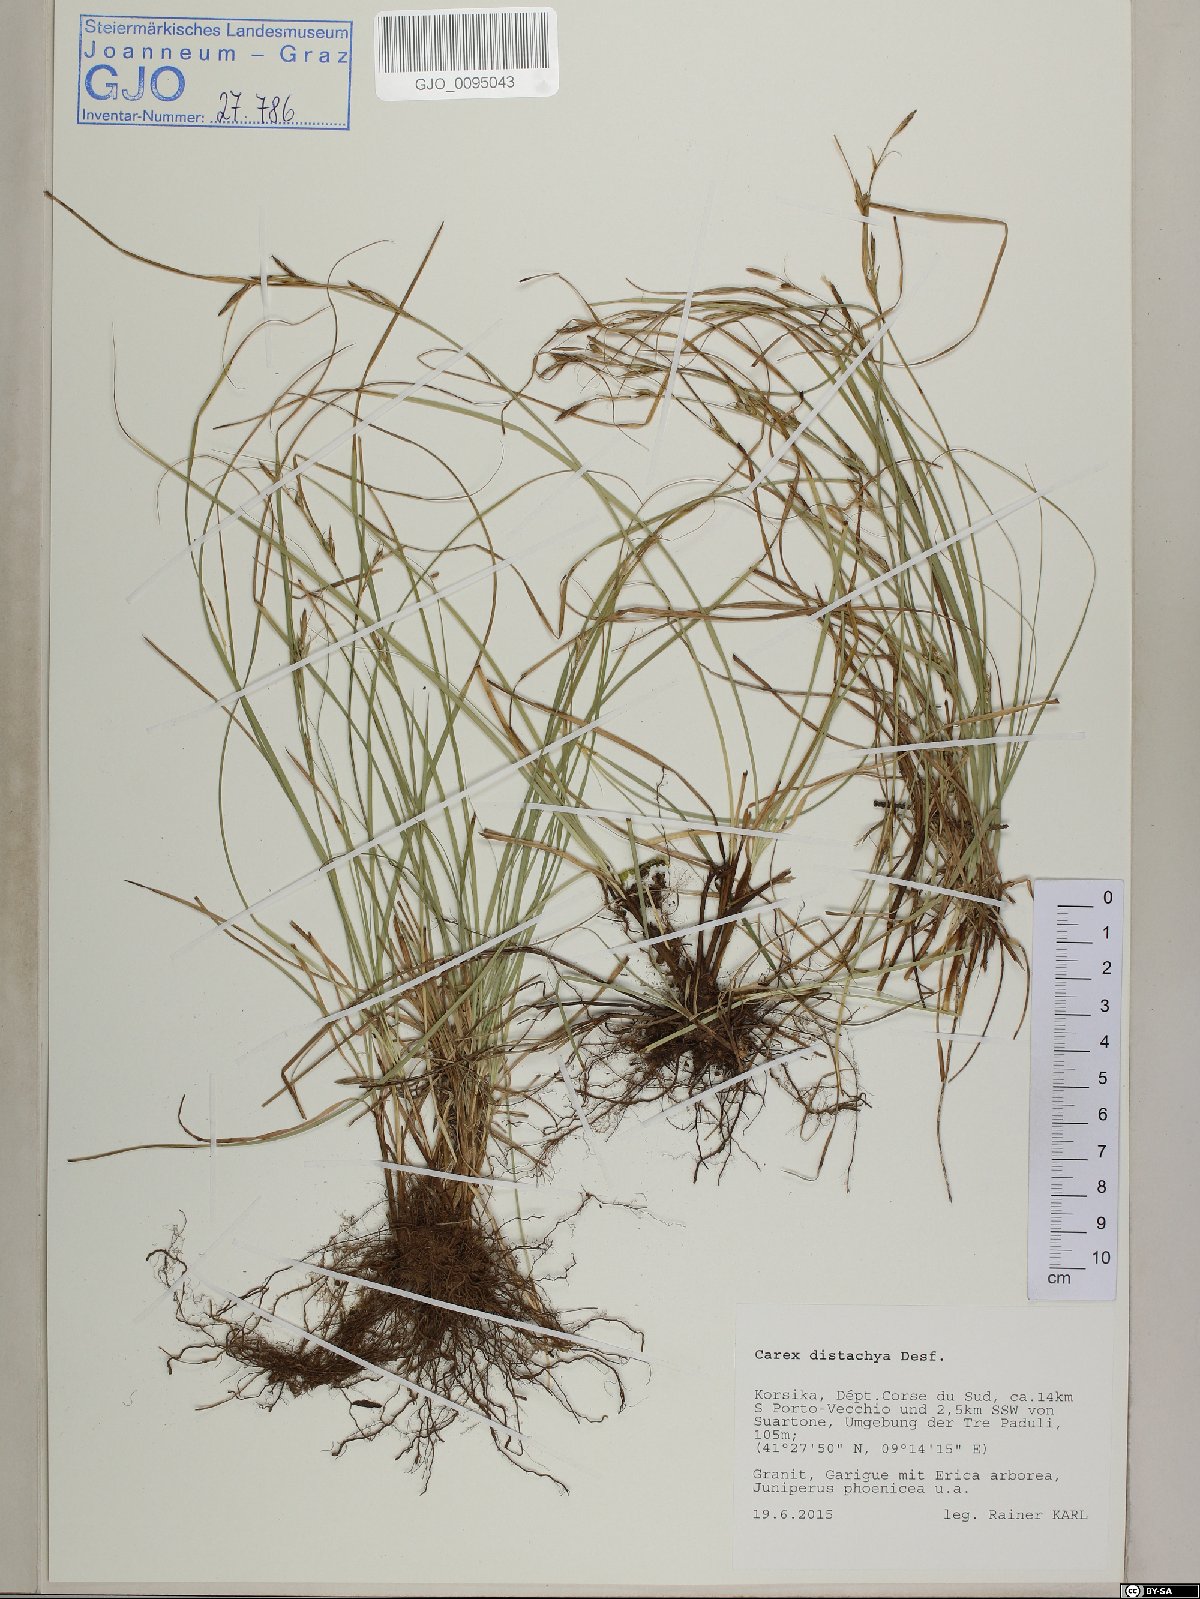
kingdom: Plantae
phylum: Tracheophyta
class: Liliopsida
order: Poales
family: Cyperaceae
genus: Carex
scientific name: Carex distachya
